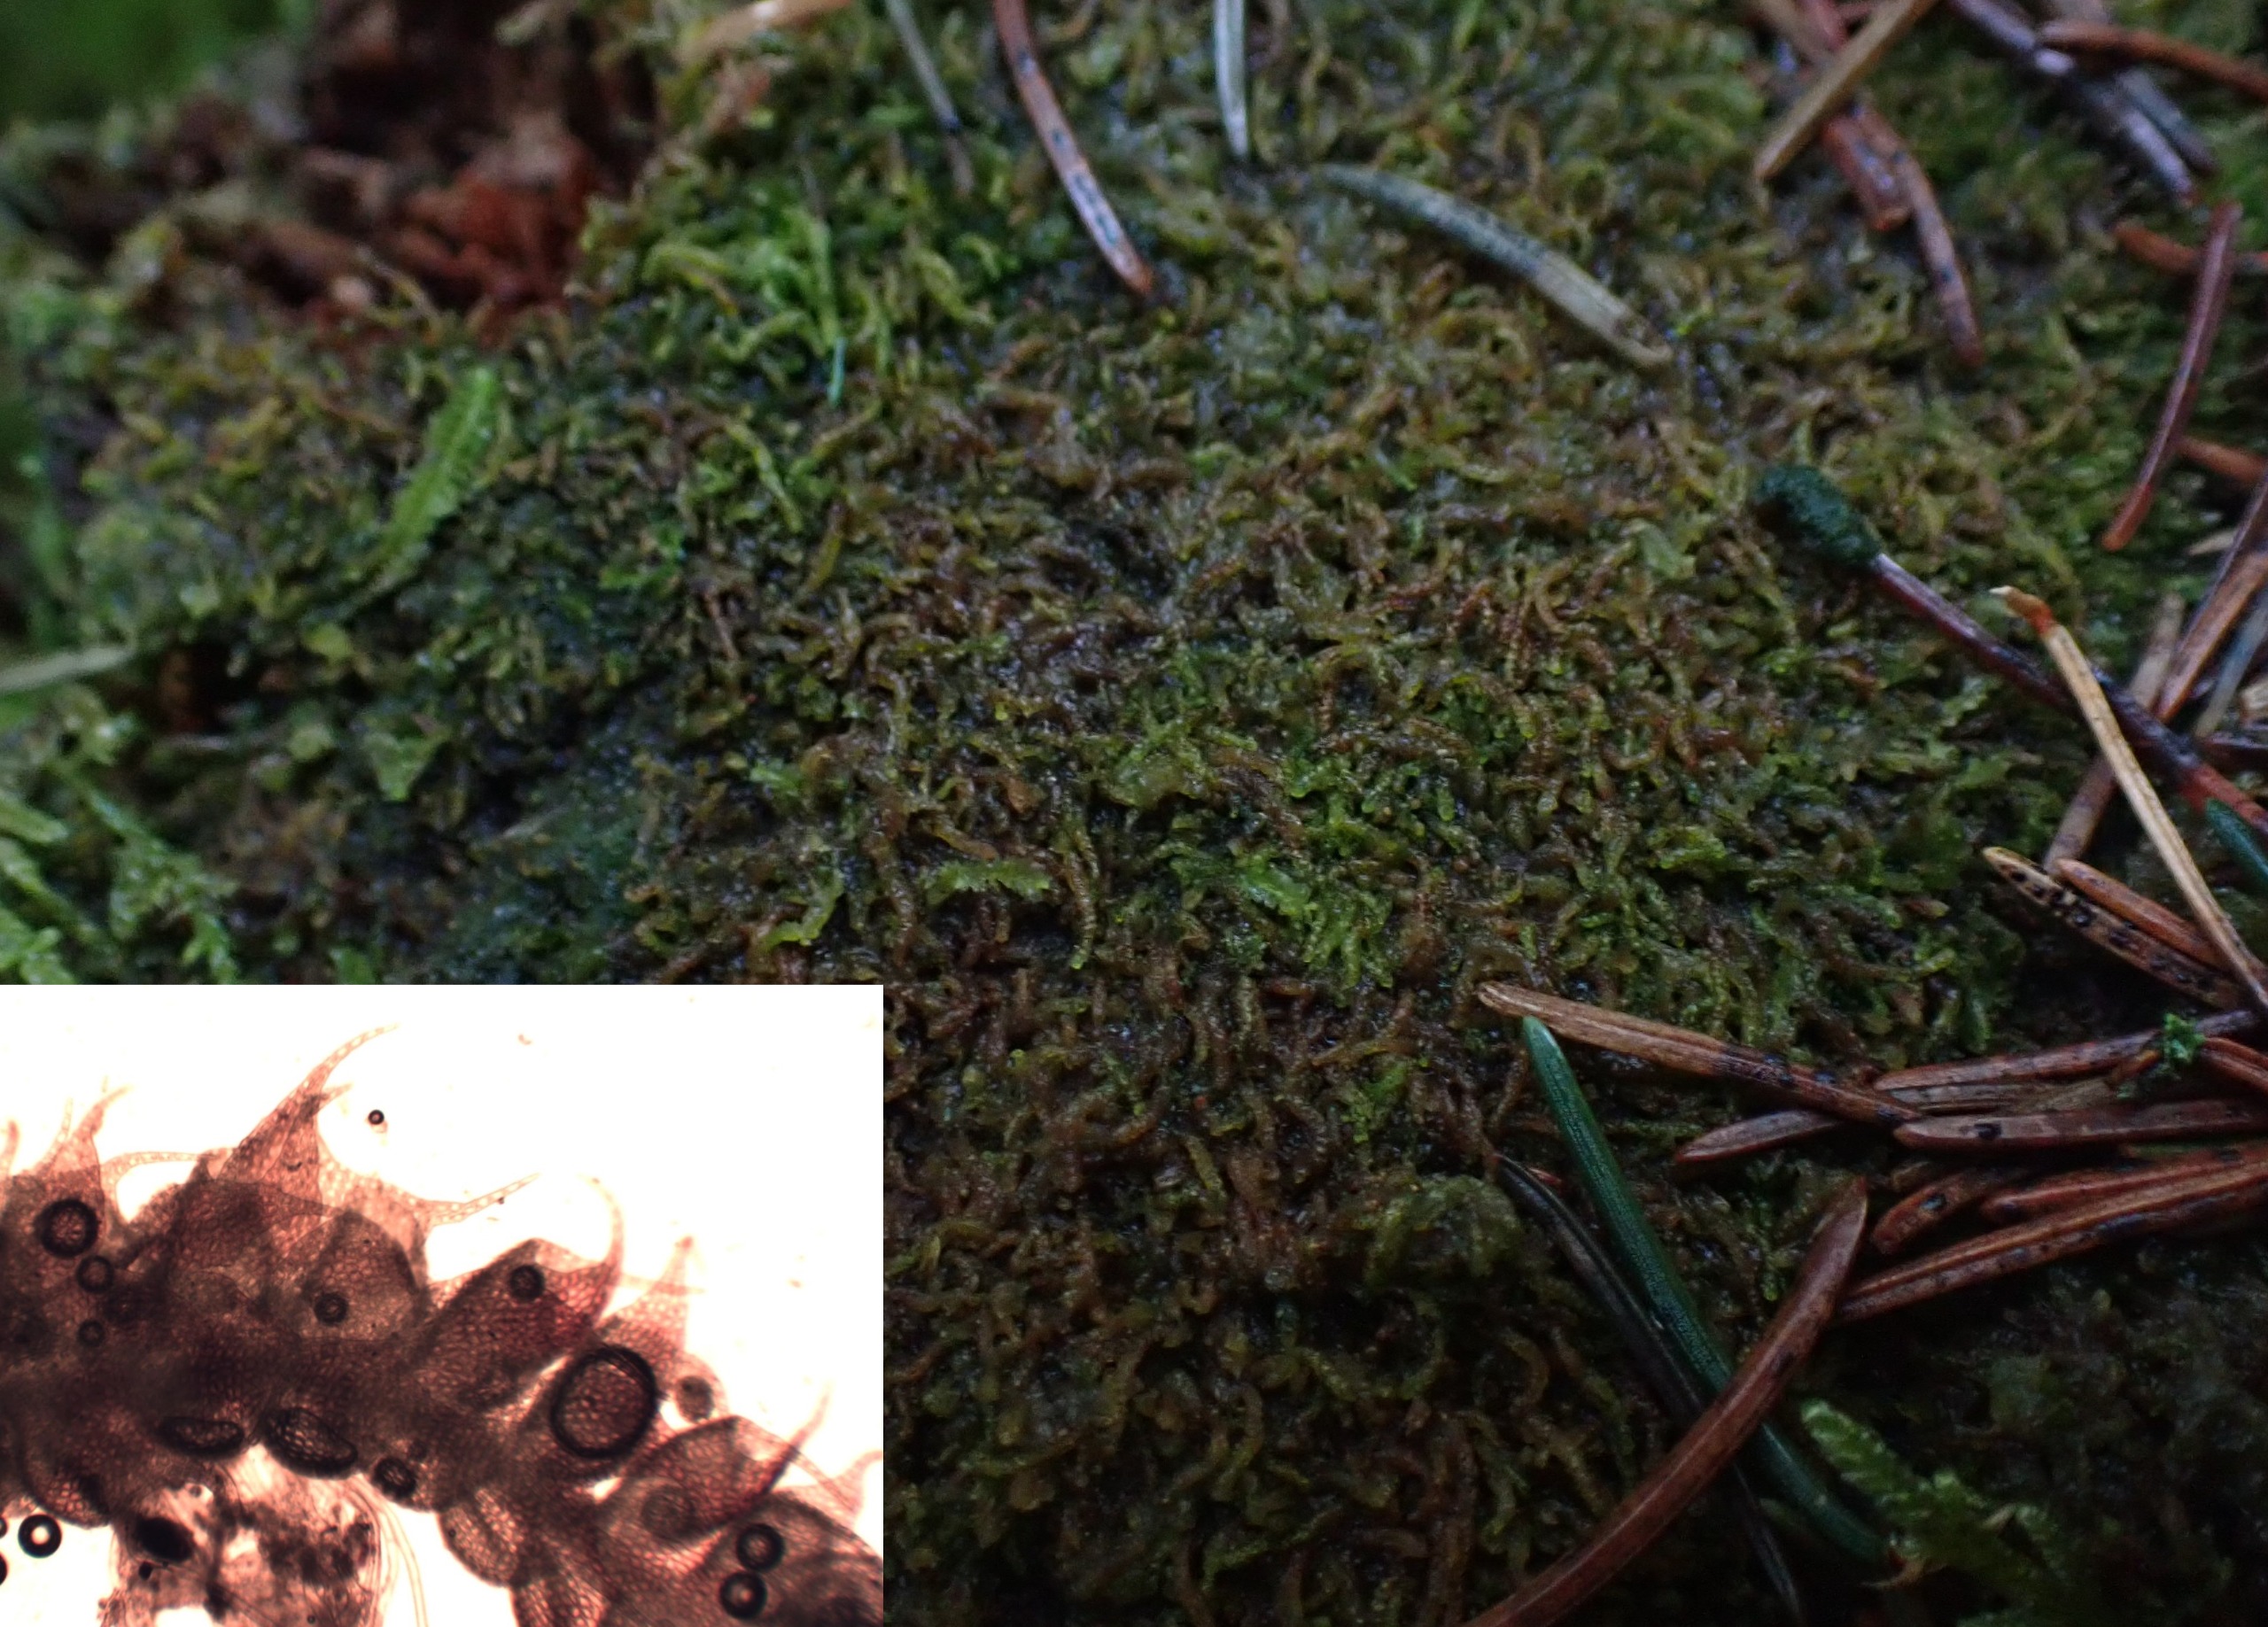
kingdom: Plantae
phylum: Marchantiophyta
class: Jungermanniopsida
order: Jungermanniales
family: Cephaloziaceae
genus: Nowellia
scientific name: Nowellia curvifolia
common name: Krumbladet stødmos
